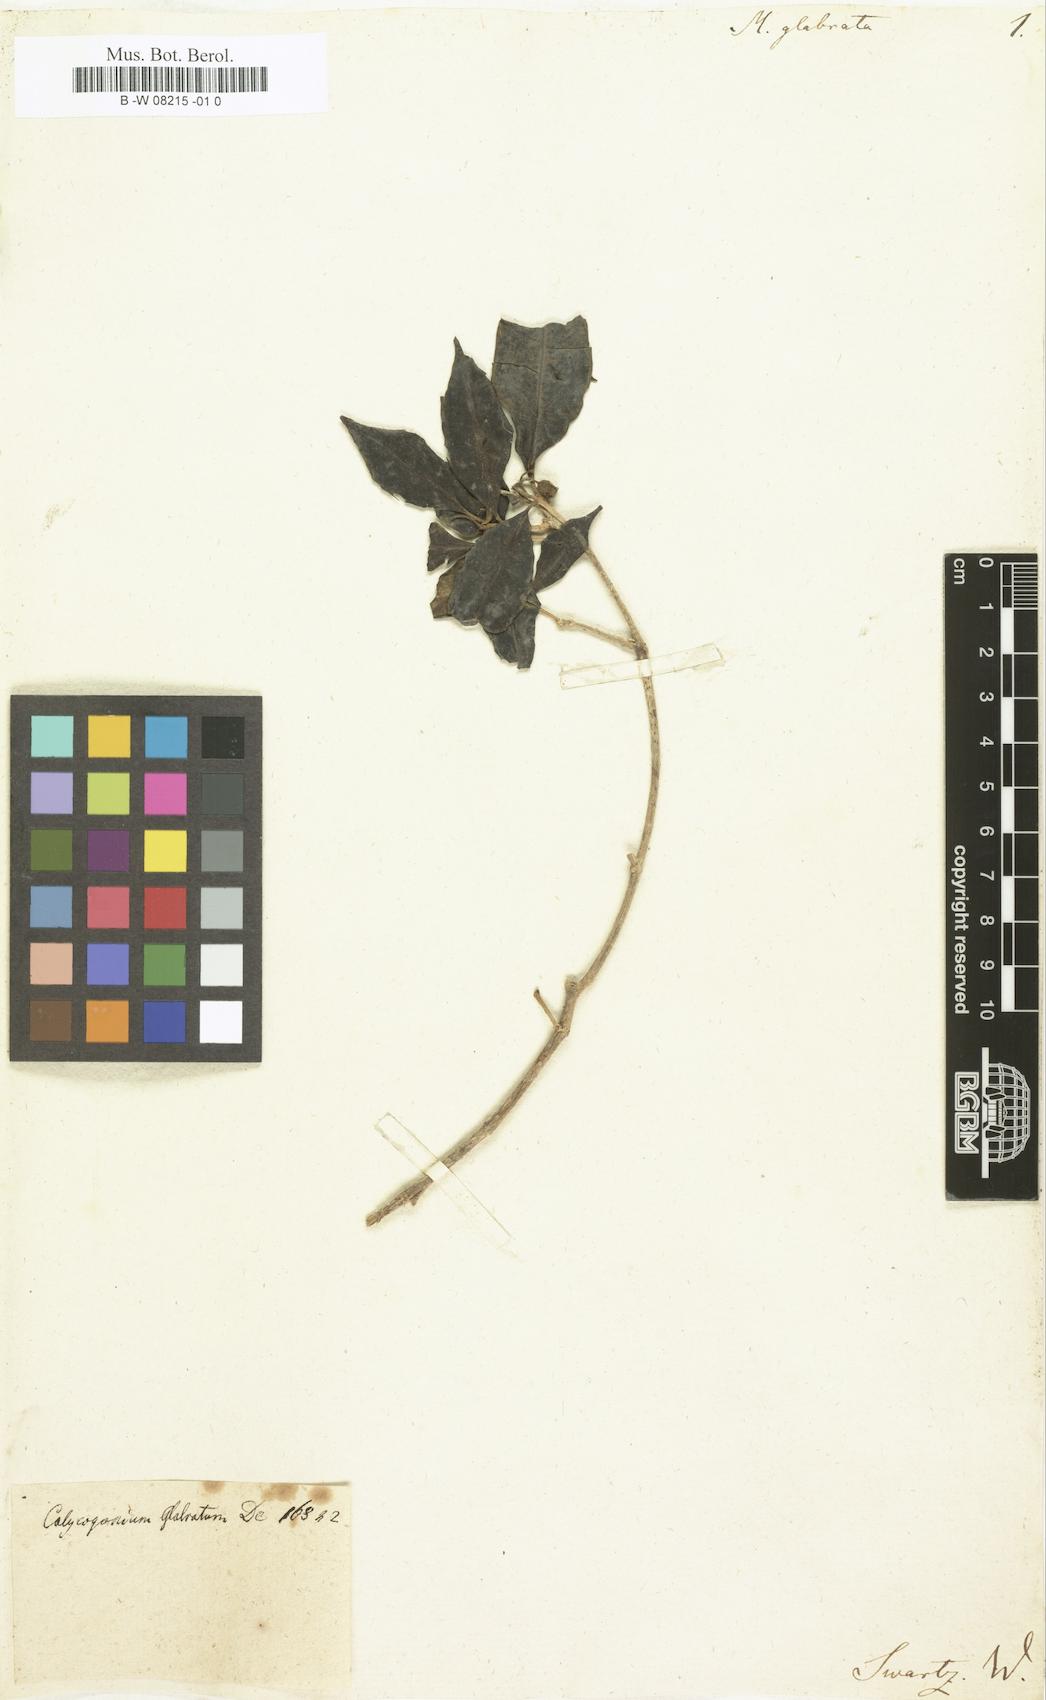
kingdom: Plantae
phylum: Tracheophyta
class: Magnoliopsida
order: Myrtales
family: Melastomataceae
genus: Miconia
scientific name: Miconia glabrifolia
